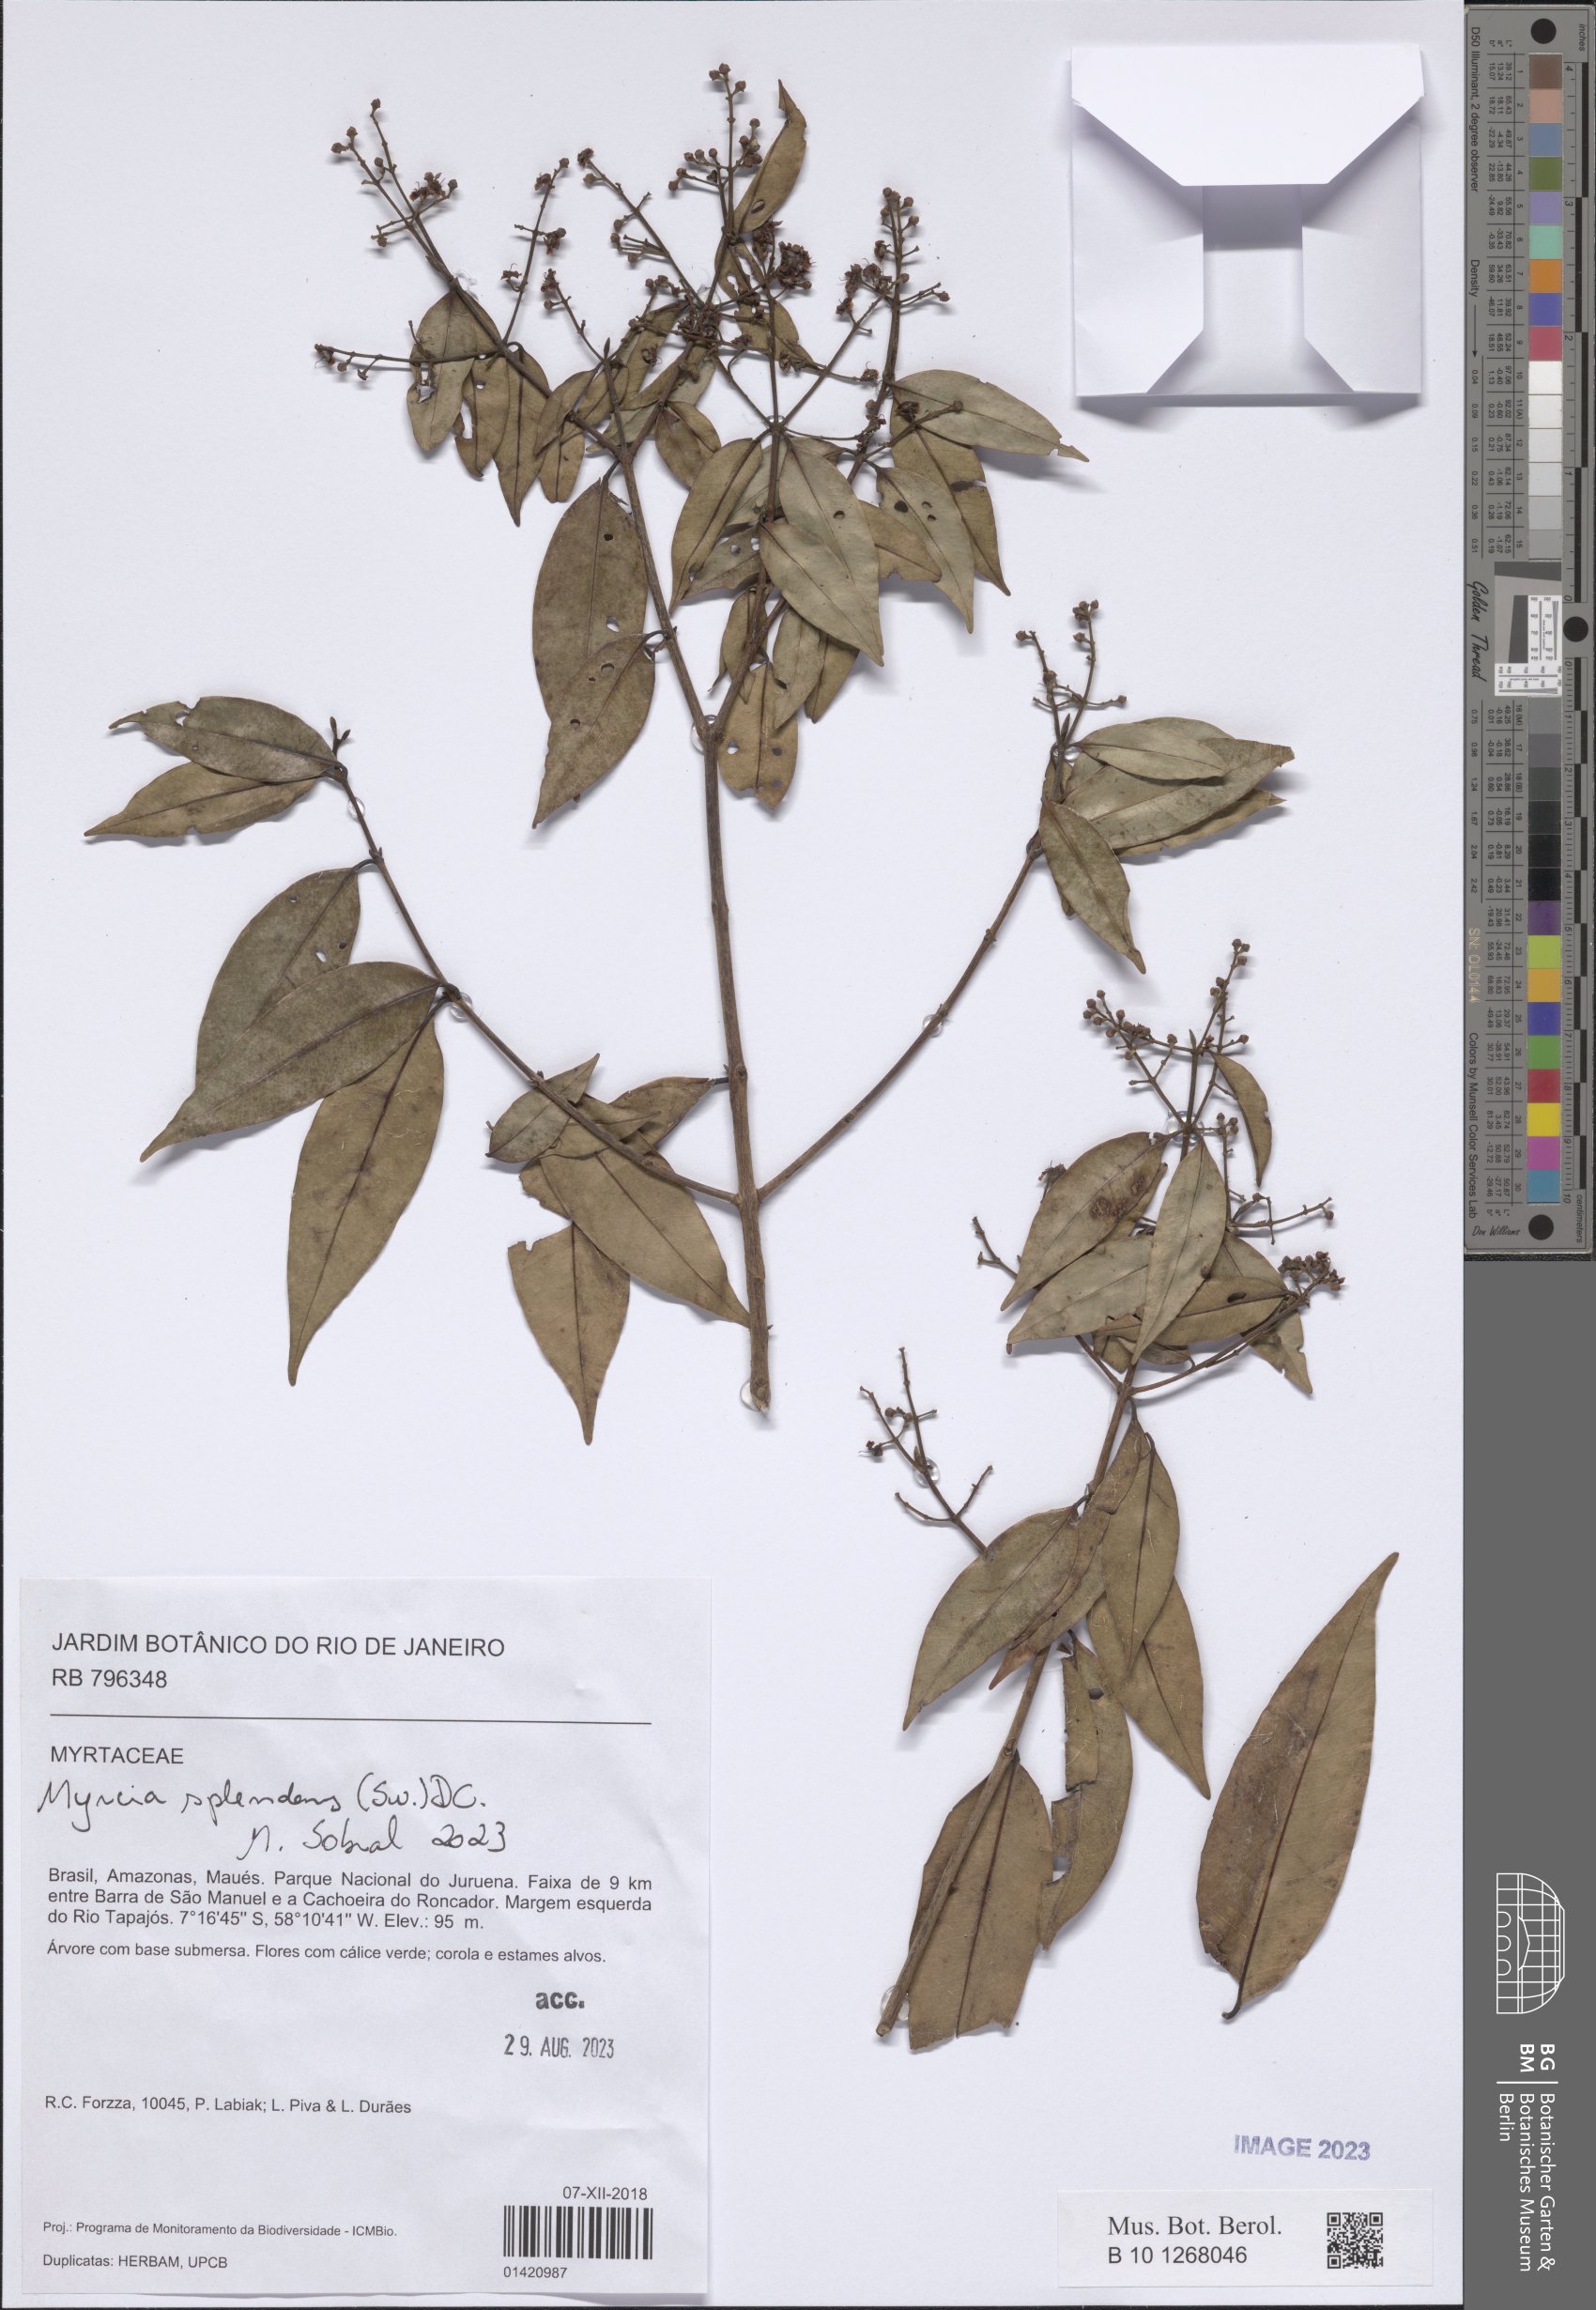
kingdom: Plantae
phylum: Tracheophyta
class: Magnoliopsida
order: Myrtales
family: Myrtaceae
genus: Myrcia
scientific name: Myrcia splendens
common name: Surinam cherry
